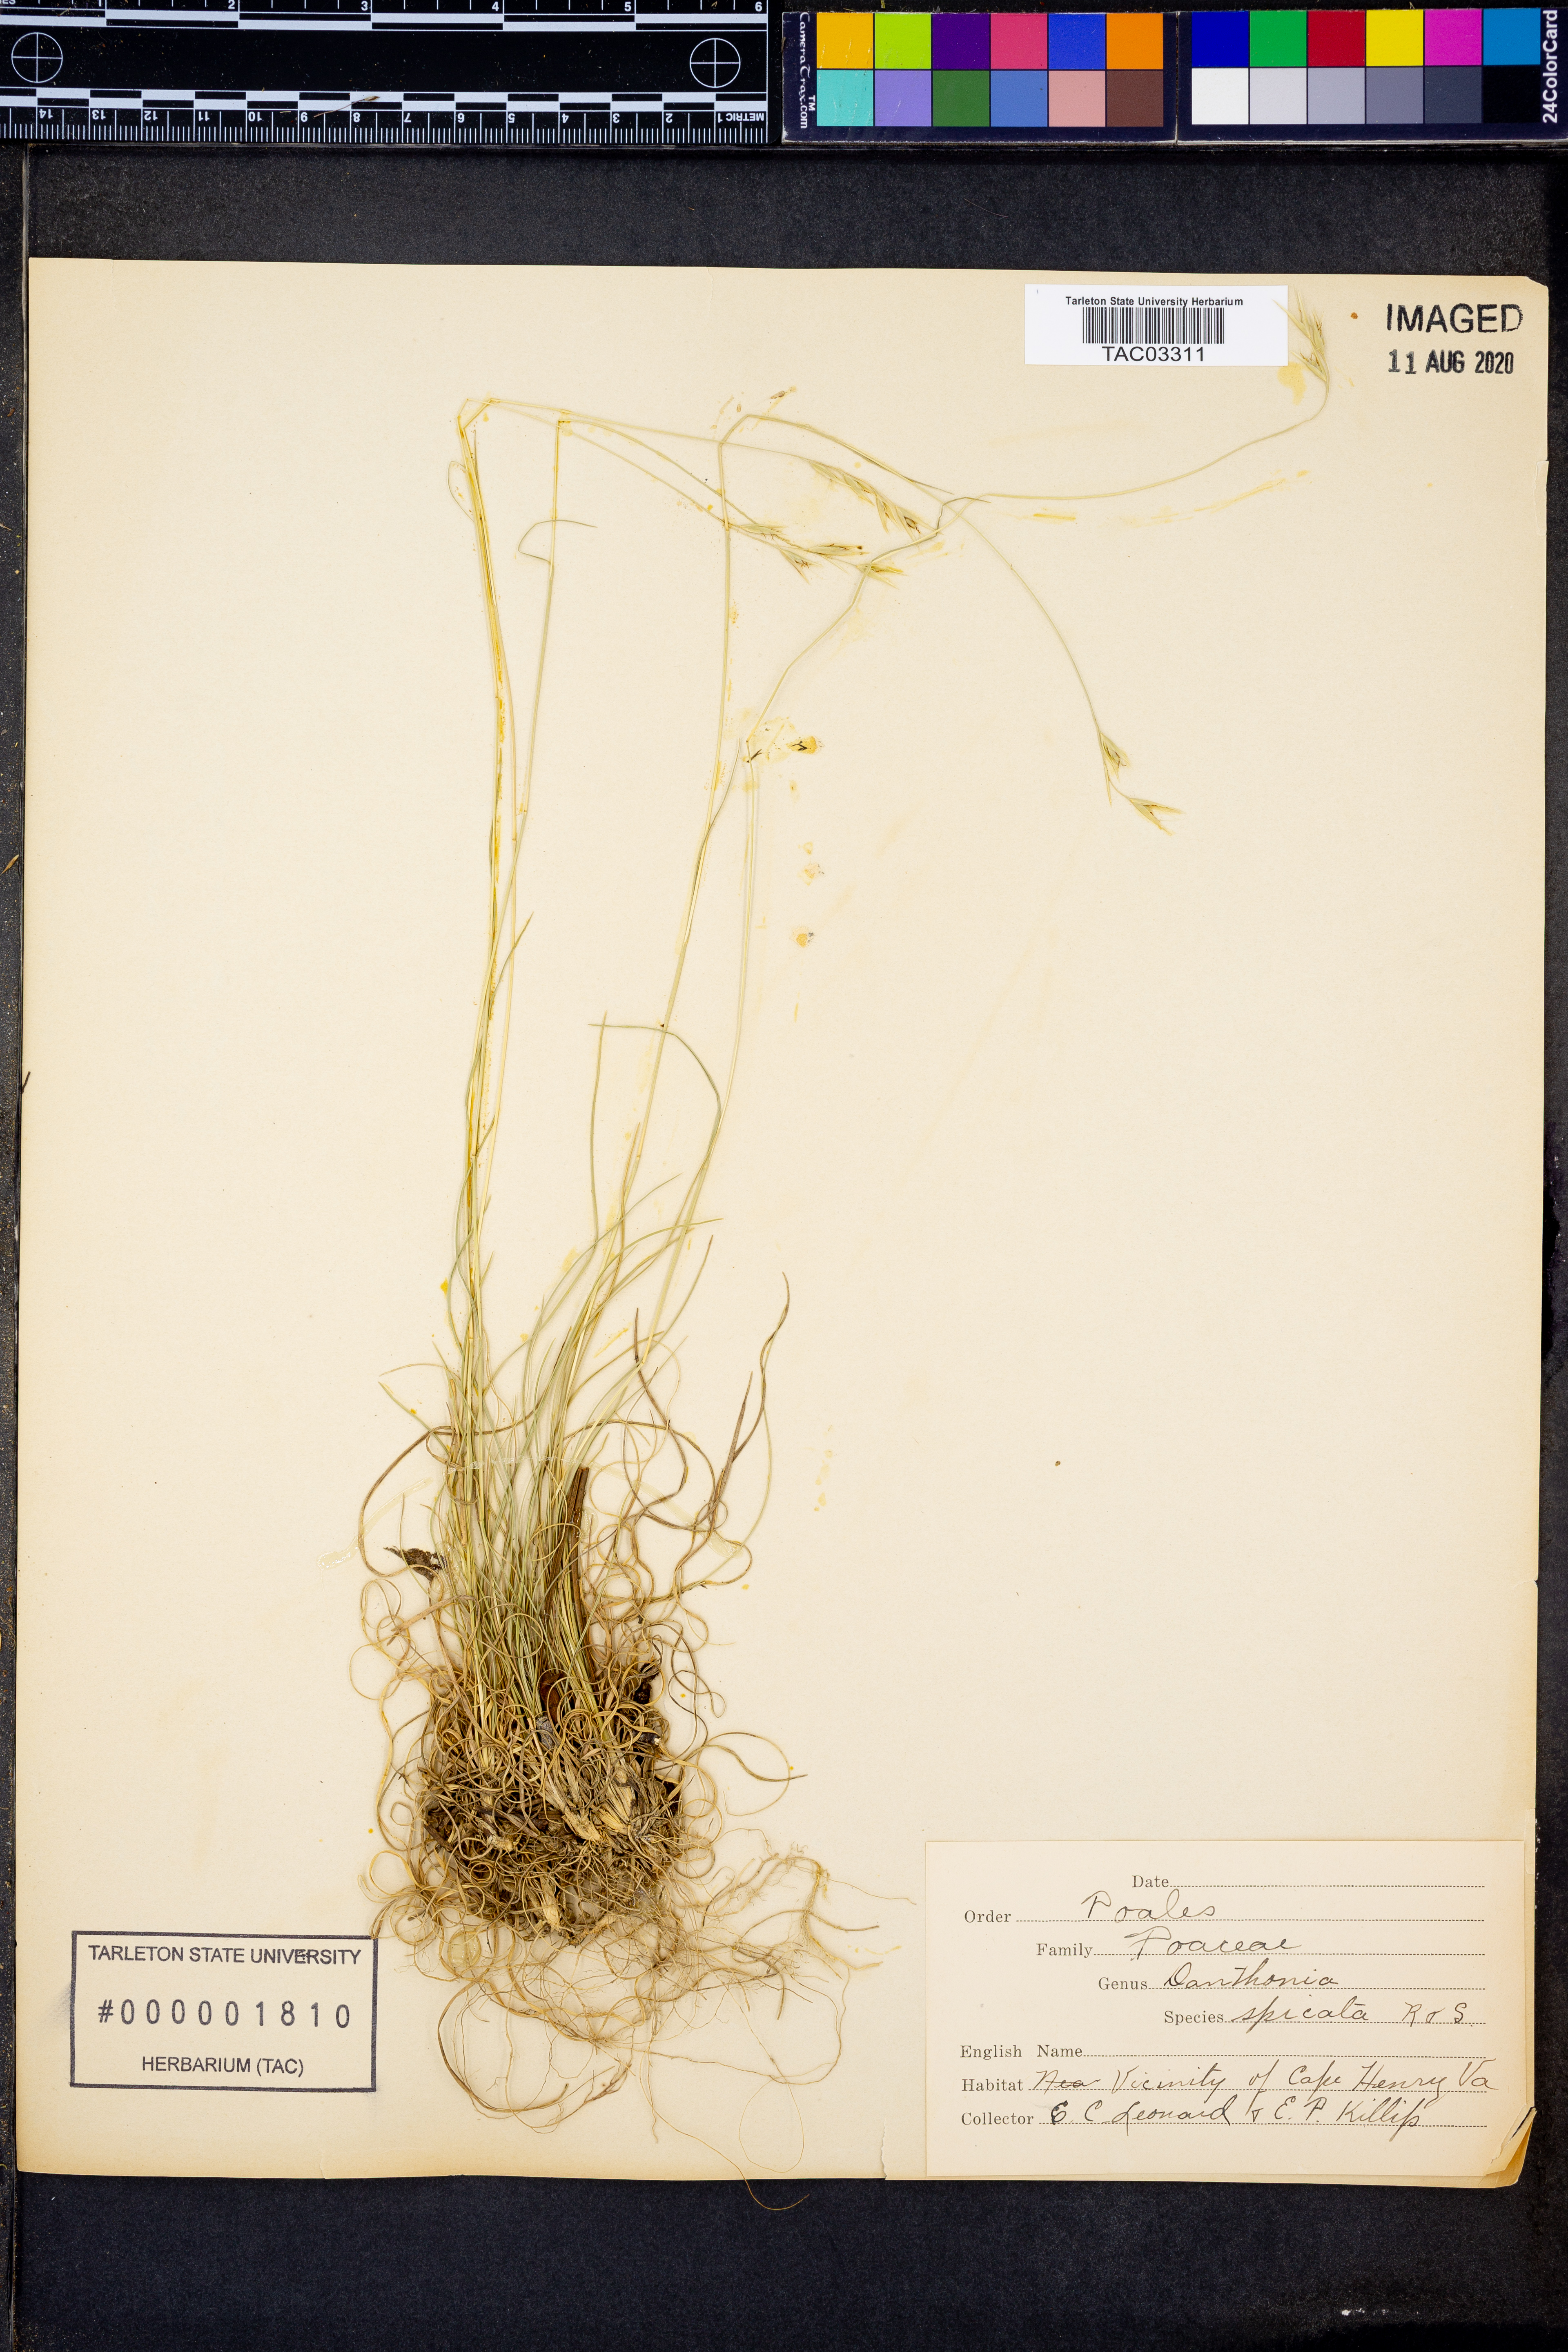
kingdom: Plantae
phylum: Tracheophyta
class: Liliopsida
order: Poales
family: Poaceae
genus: Danthonia
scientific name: Danthonia spicata
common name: Common wild oatgrass
